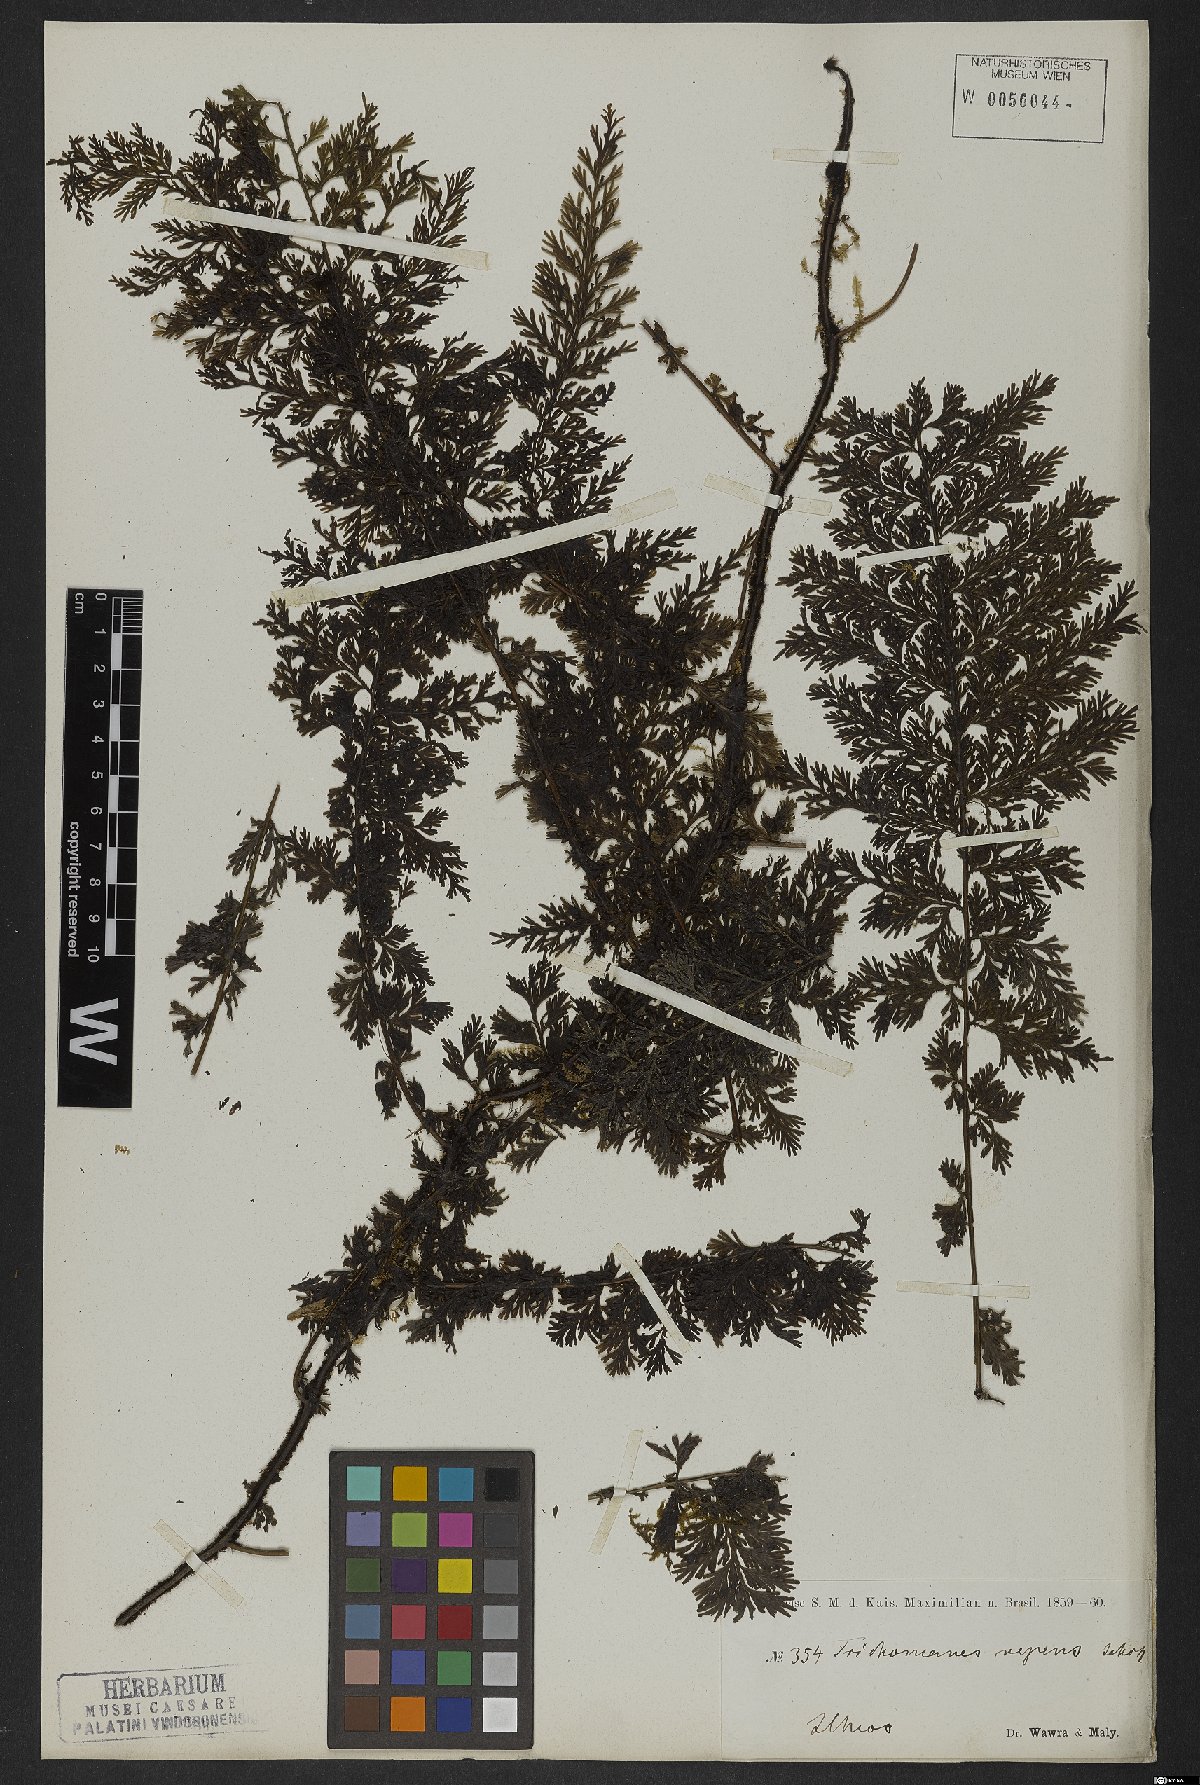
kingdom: Plantae
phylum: Tracheophyta
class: Polypodiopsida
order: Hymenophyllales
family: Hymenophyllaceae
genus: Vandenboschia
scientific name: Vandenboschia radicans
